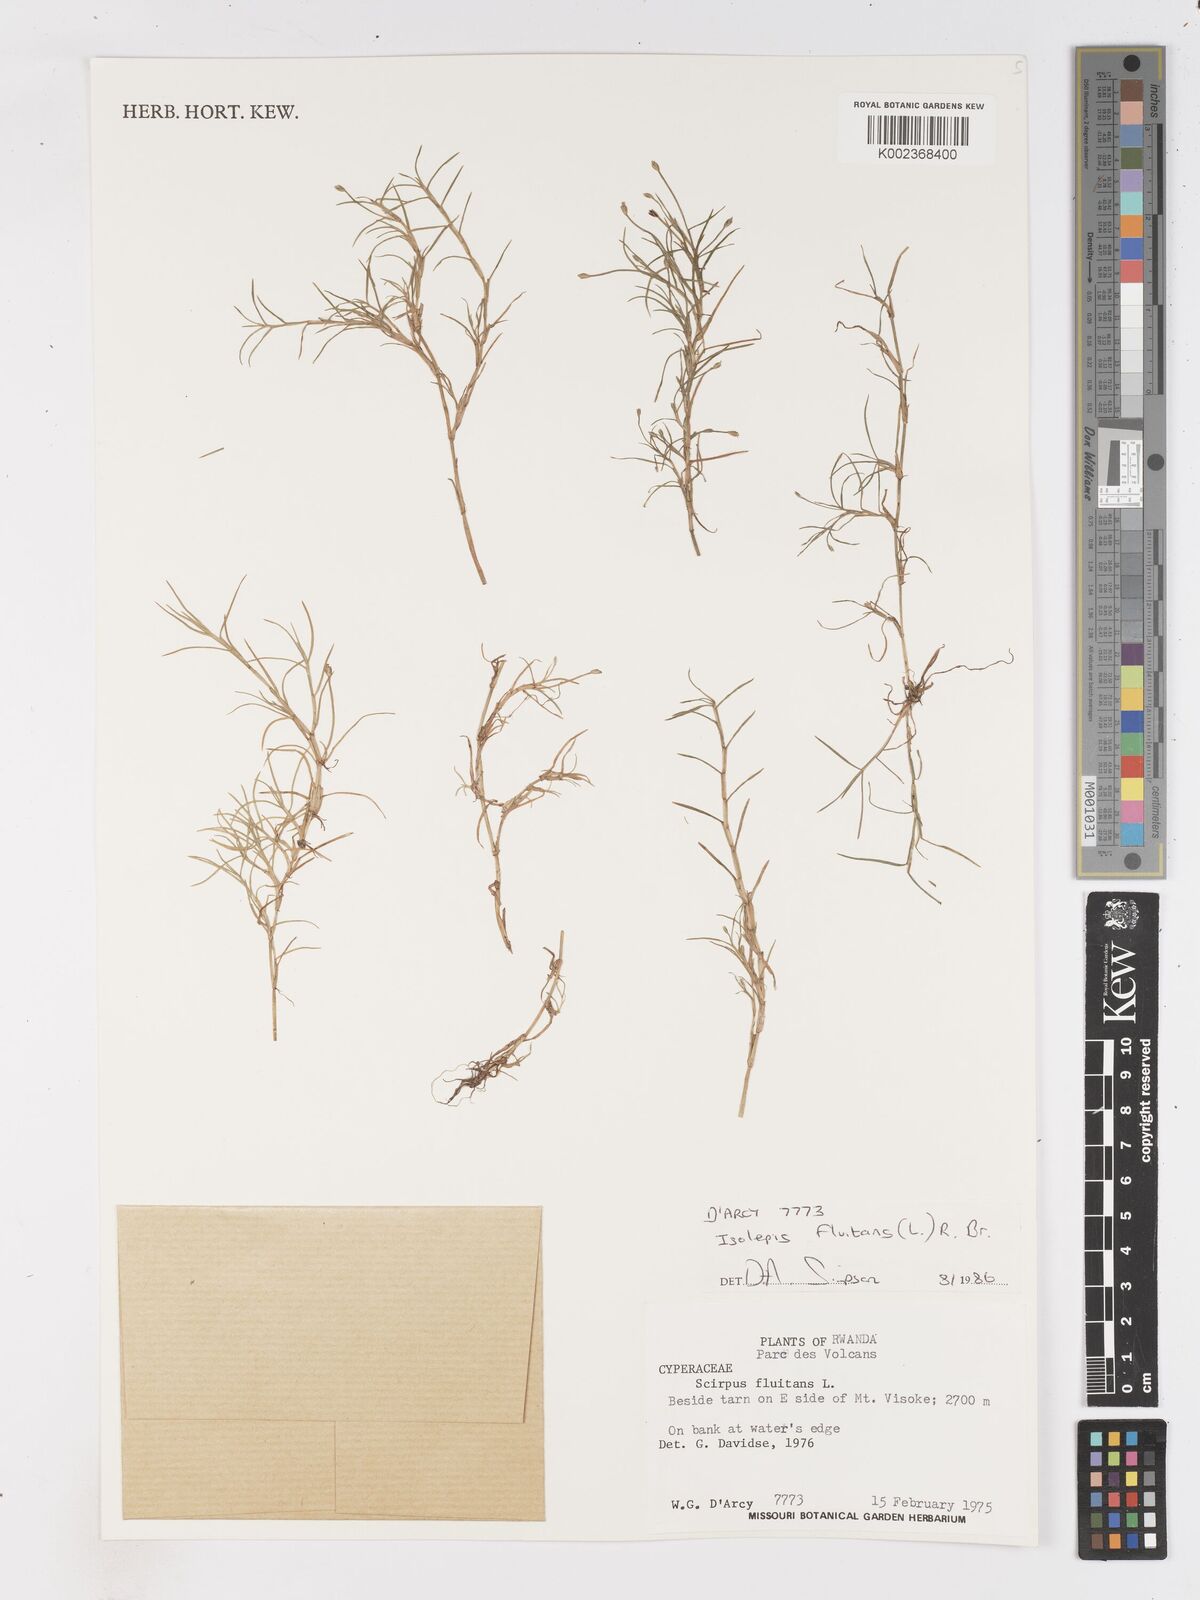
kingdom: Plantae
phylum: Tracheophyta
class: Liliopsida
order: Poales
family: Cyperaceae
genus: Isolepis
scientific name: Isolepis fluitans
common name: Floating club-rush
